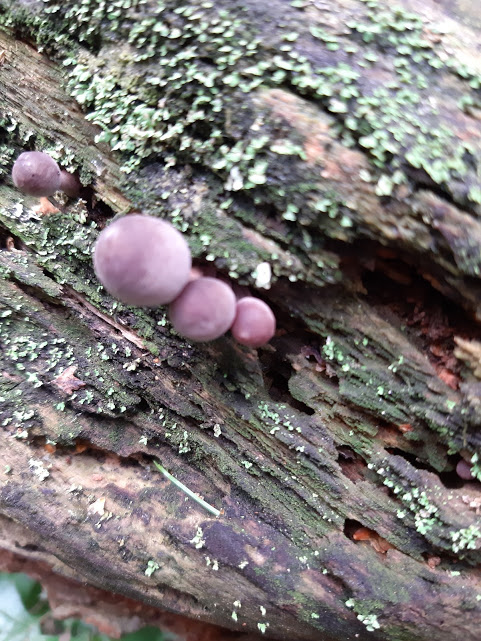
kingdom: Fungi
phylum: Basidiomycota
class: Agaricomycetes
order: Agaricales
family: Mycenaceae
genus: Mycena
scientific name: Mycena haematopus
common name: blødende huesvamp
